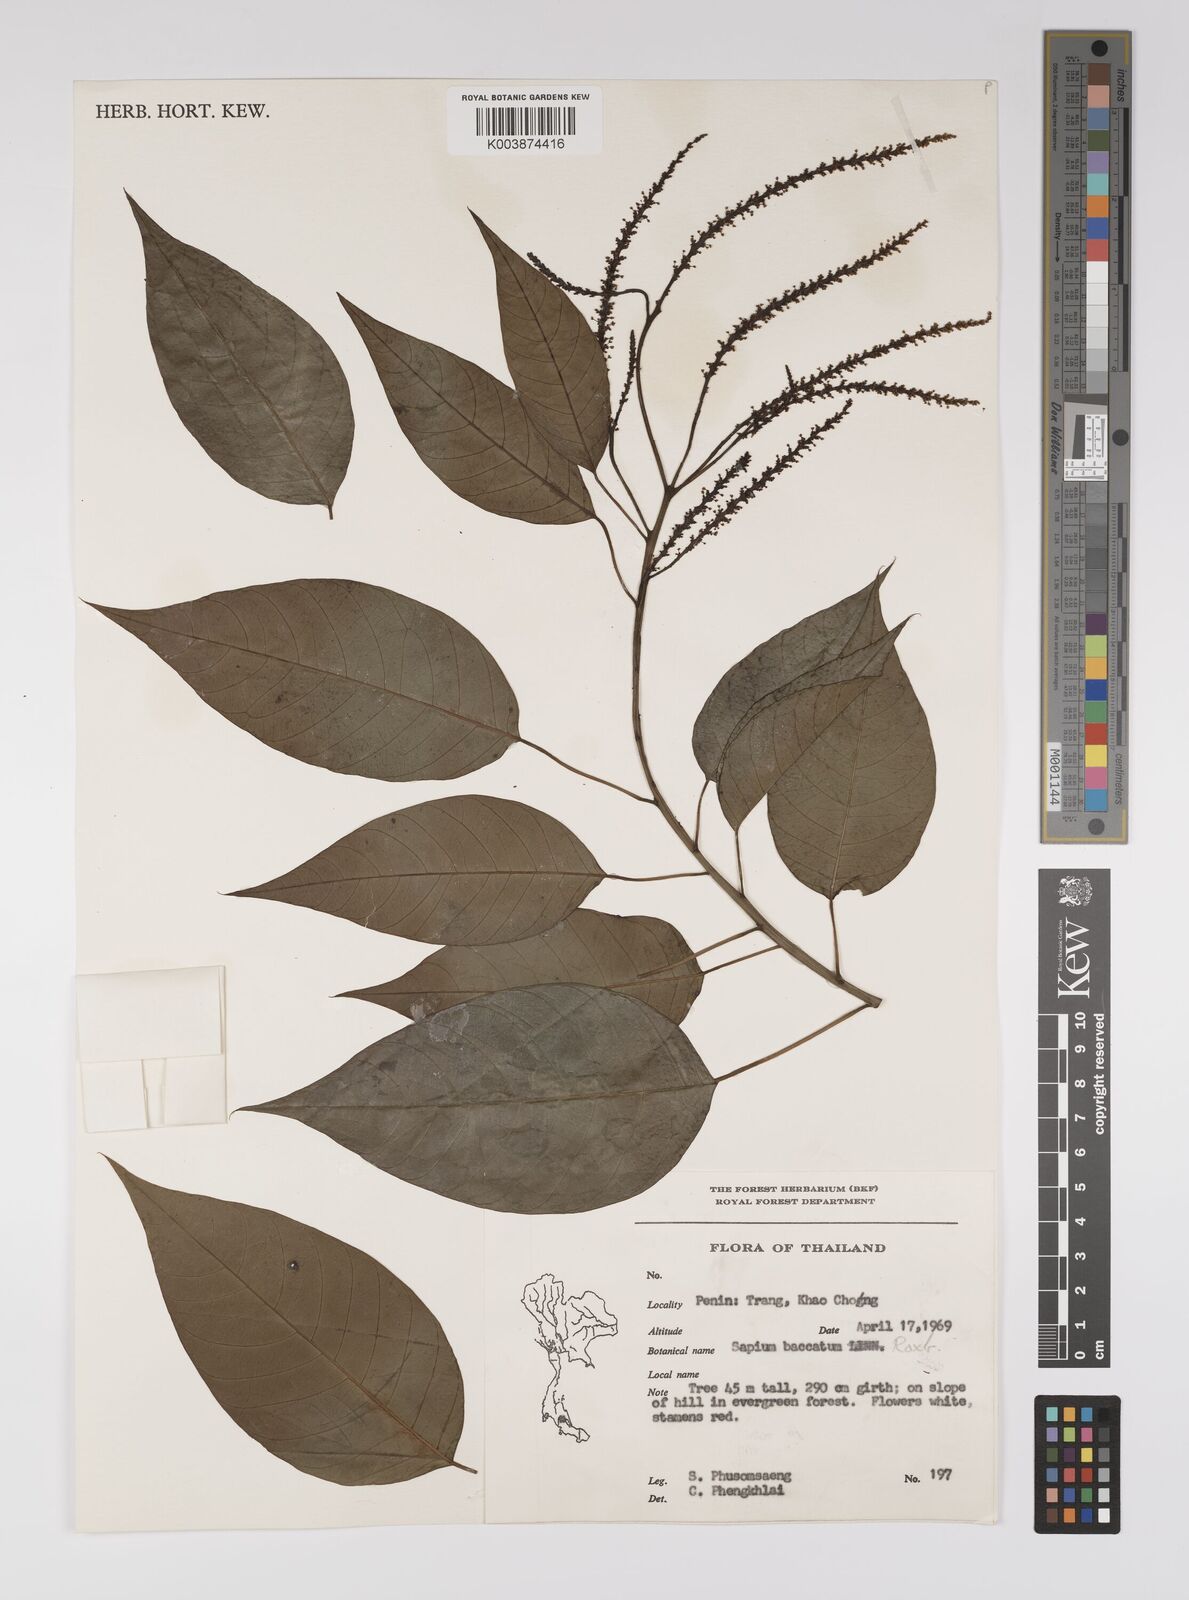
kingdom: Plantae
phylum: Tracheophyta
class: Magnoliopsida
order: Malpighiales
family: Euphorbiaceae
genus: Balakata
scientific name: Balakata baccata
